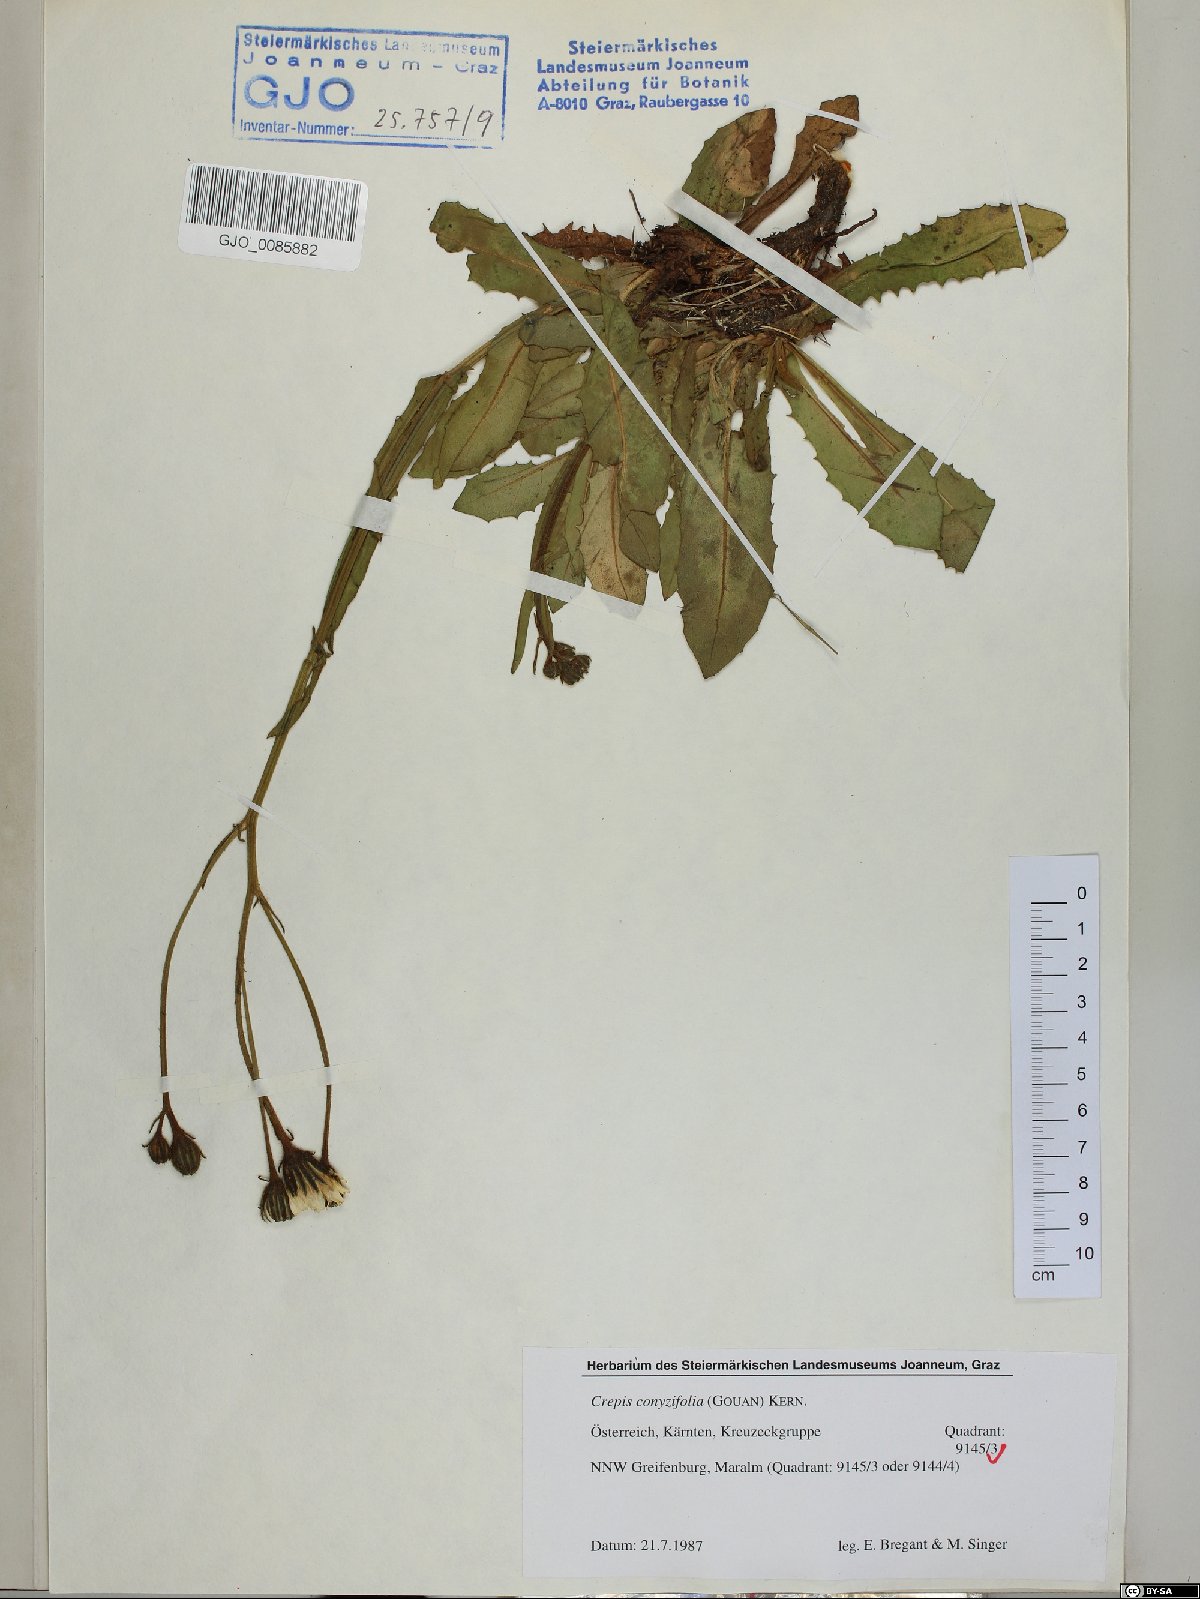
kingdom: Plantae
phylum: Tracheophyta
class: Magnoliopsida
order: Asterales
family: Asteraceae
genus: Crepis
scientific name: Crepis blattarioides
